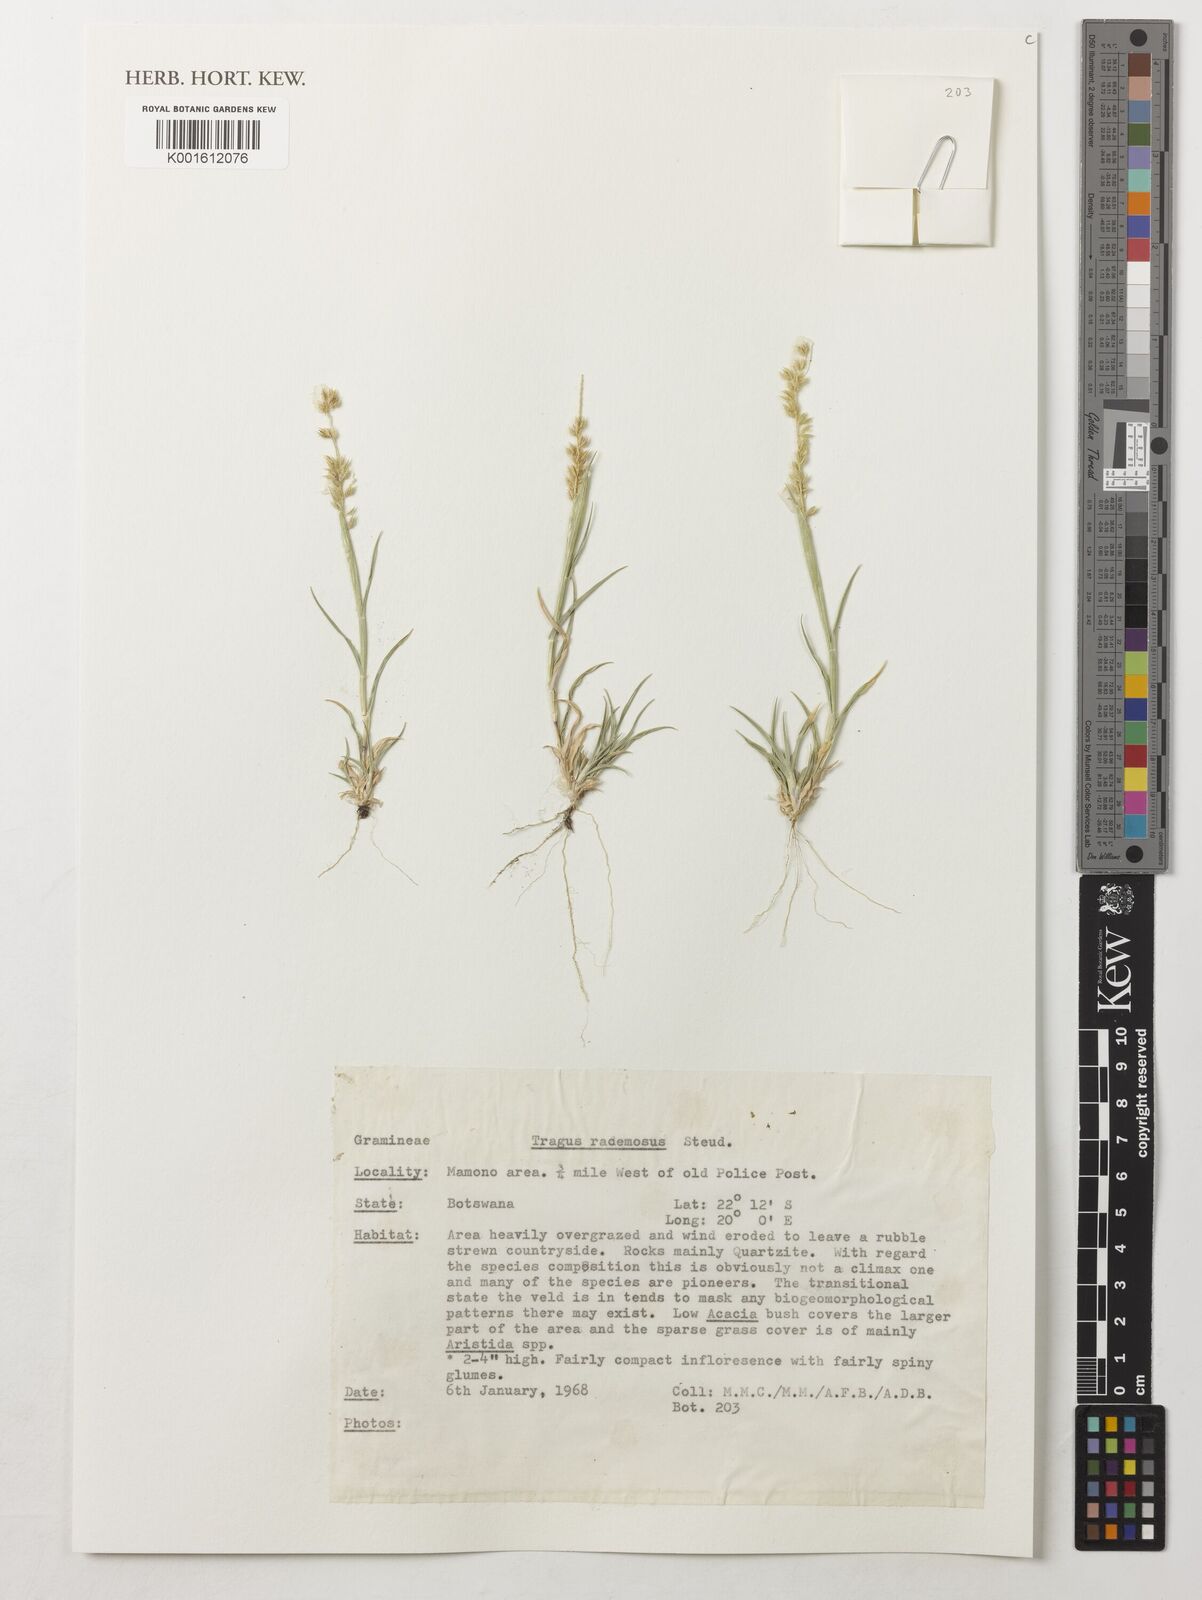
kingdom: Plantae
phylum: Tracheophyta
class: Liliopsida
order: Poales
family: Poaceae
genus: Tragus
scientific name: Tragus racemosus
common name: European bur-grass
